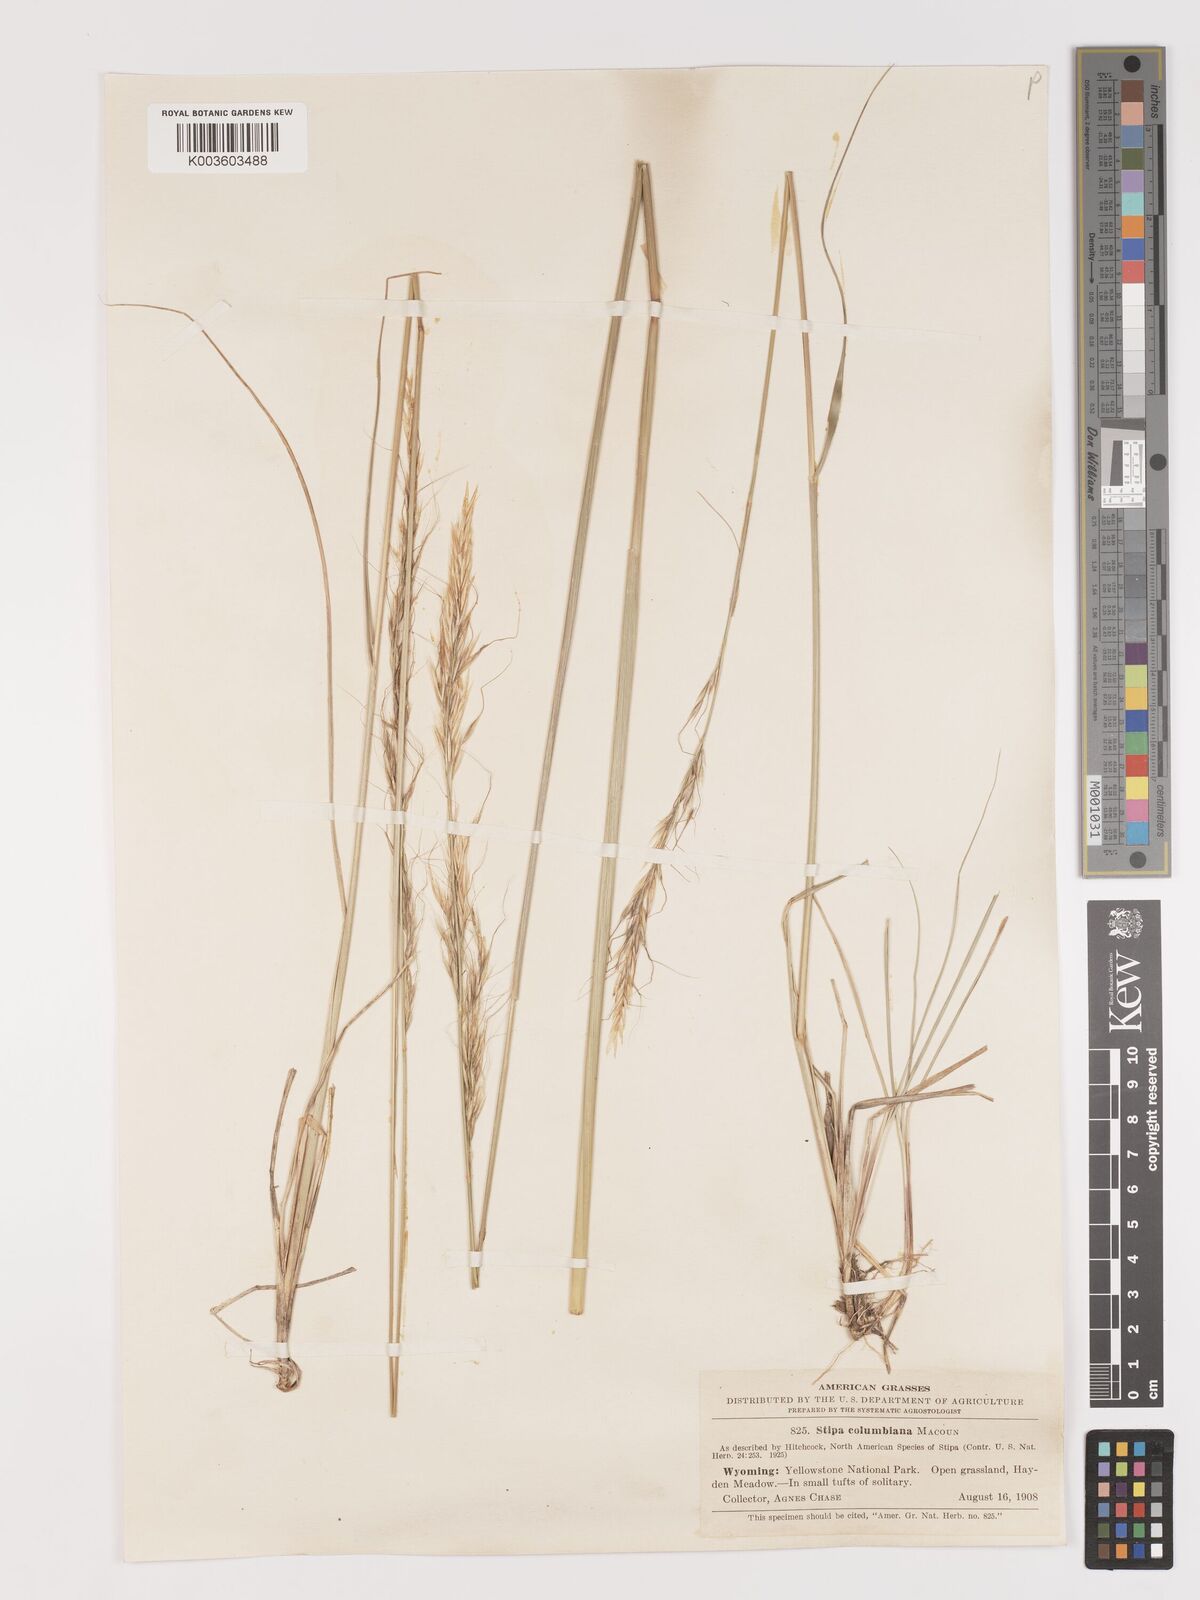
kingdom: Plantae
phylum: Tracheophyta
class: Liliopsida
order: Poales
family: Poaceae
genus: Eriocoma
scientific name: Eriocoma nelsonii
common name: Nelson's needlegrass
